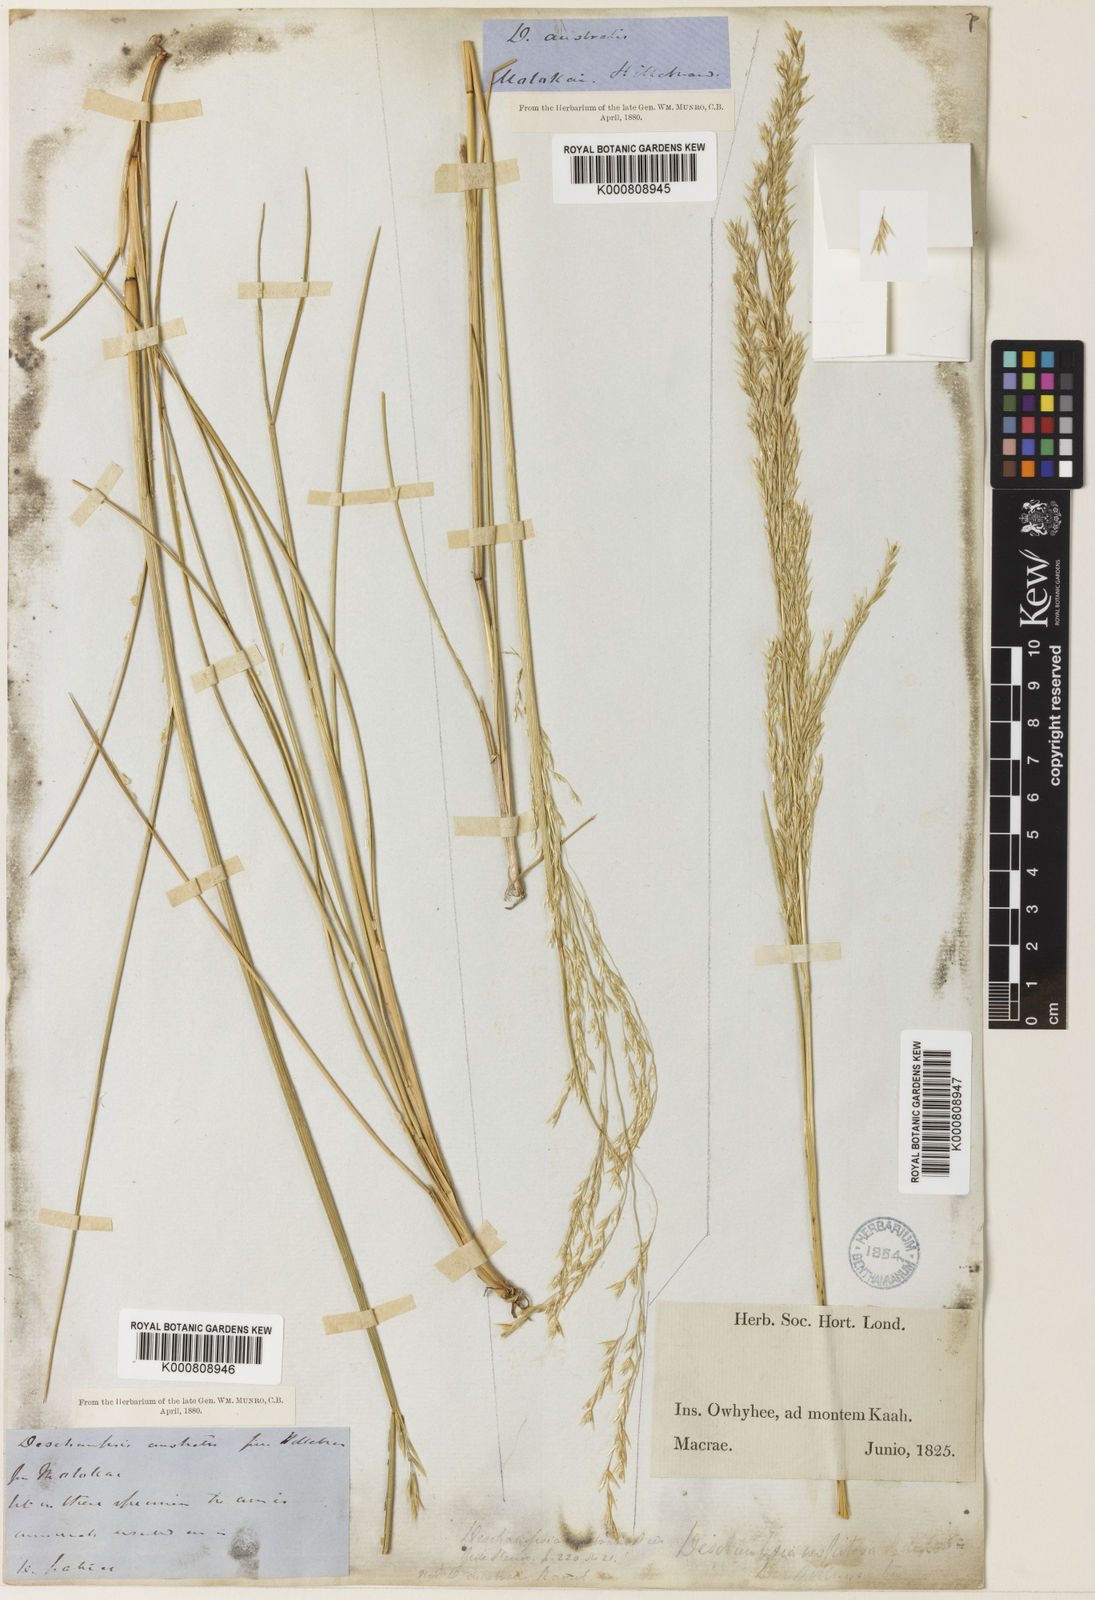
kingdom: Plantae
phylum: Tracheophyta
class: Liliopsida
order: Poales
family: Poaceae
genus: Deschampsia
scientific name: Deschampsia
